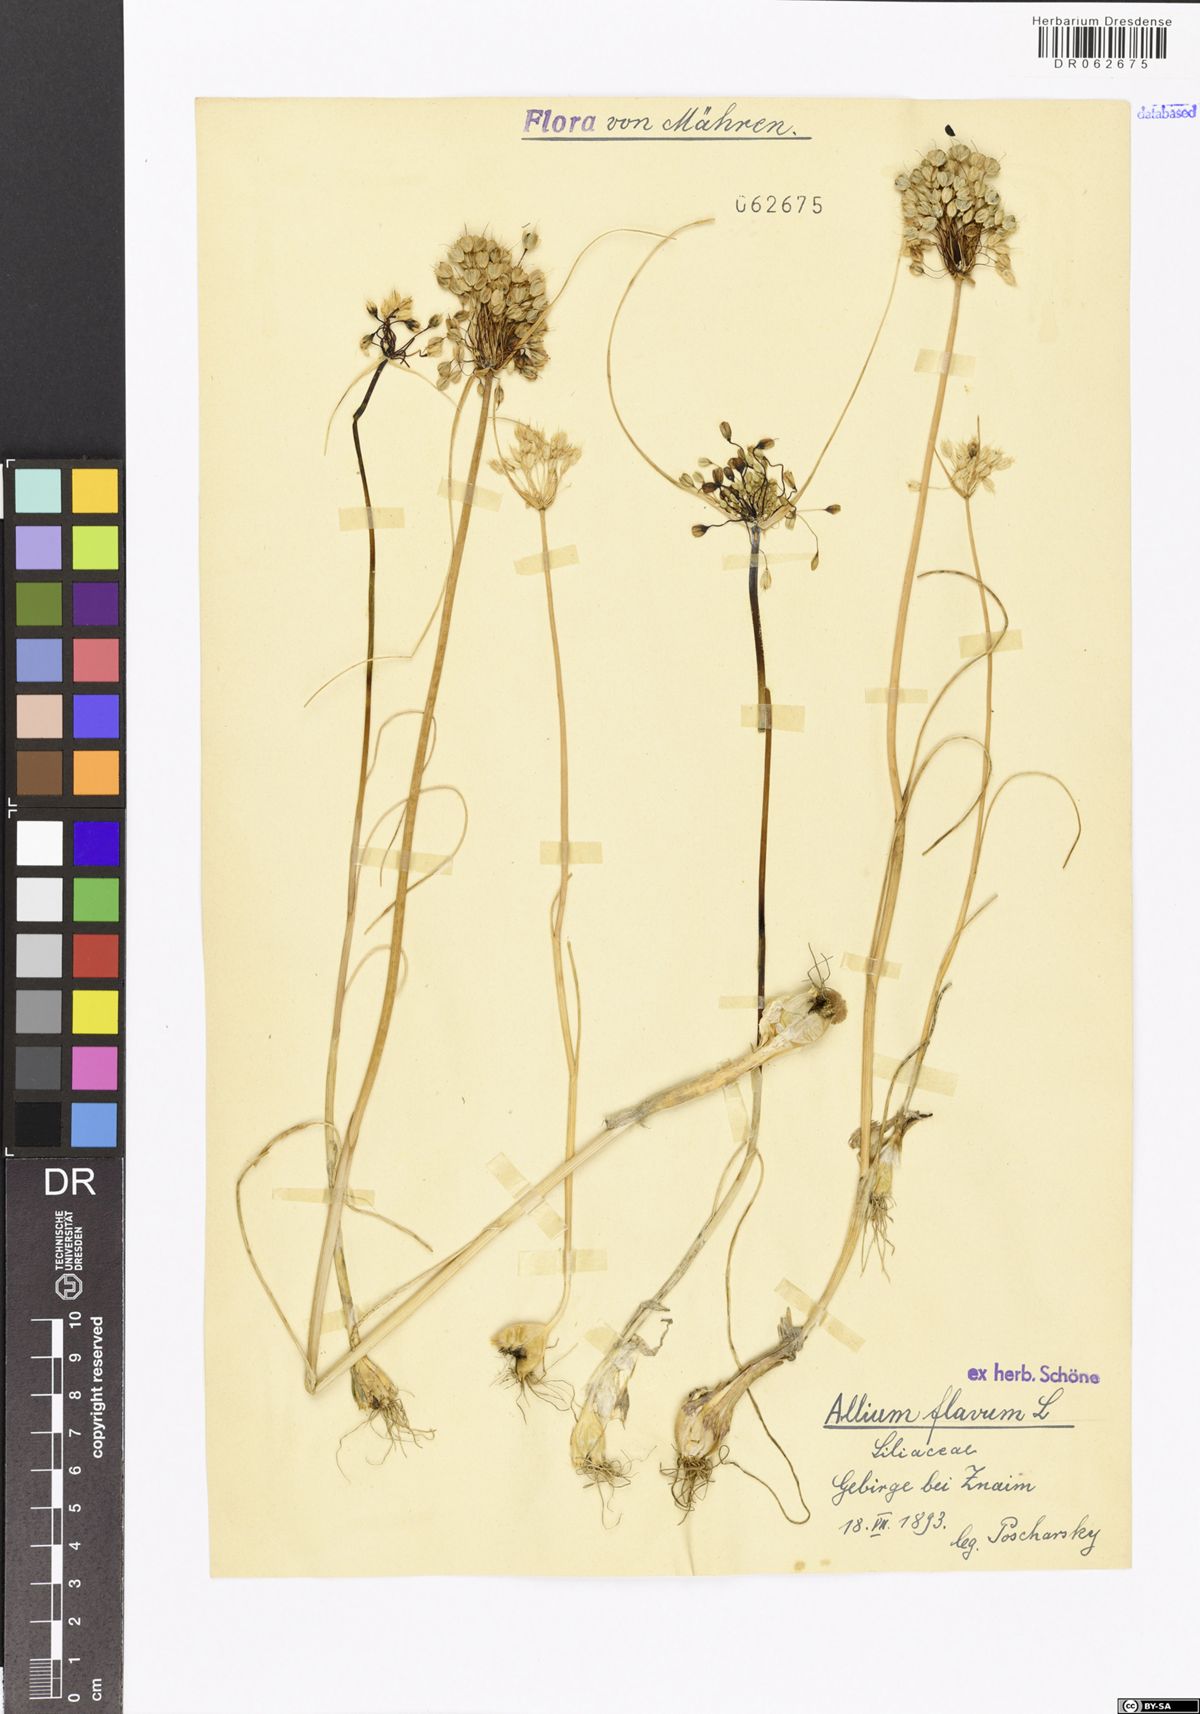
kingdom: Plantae
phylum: Tracheophyta
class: Liliopsida
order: Asparagales
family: Amaryllidaceae
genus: Allium
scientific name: Allium flavum
